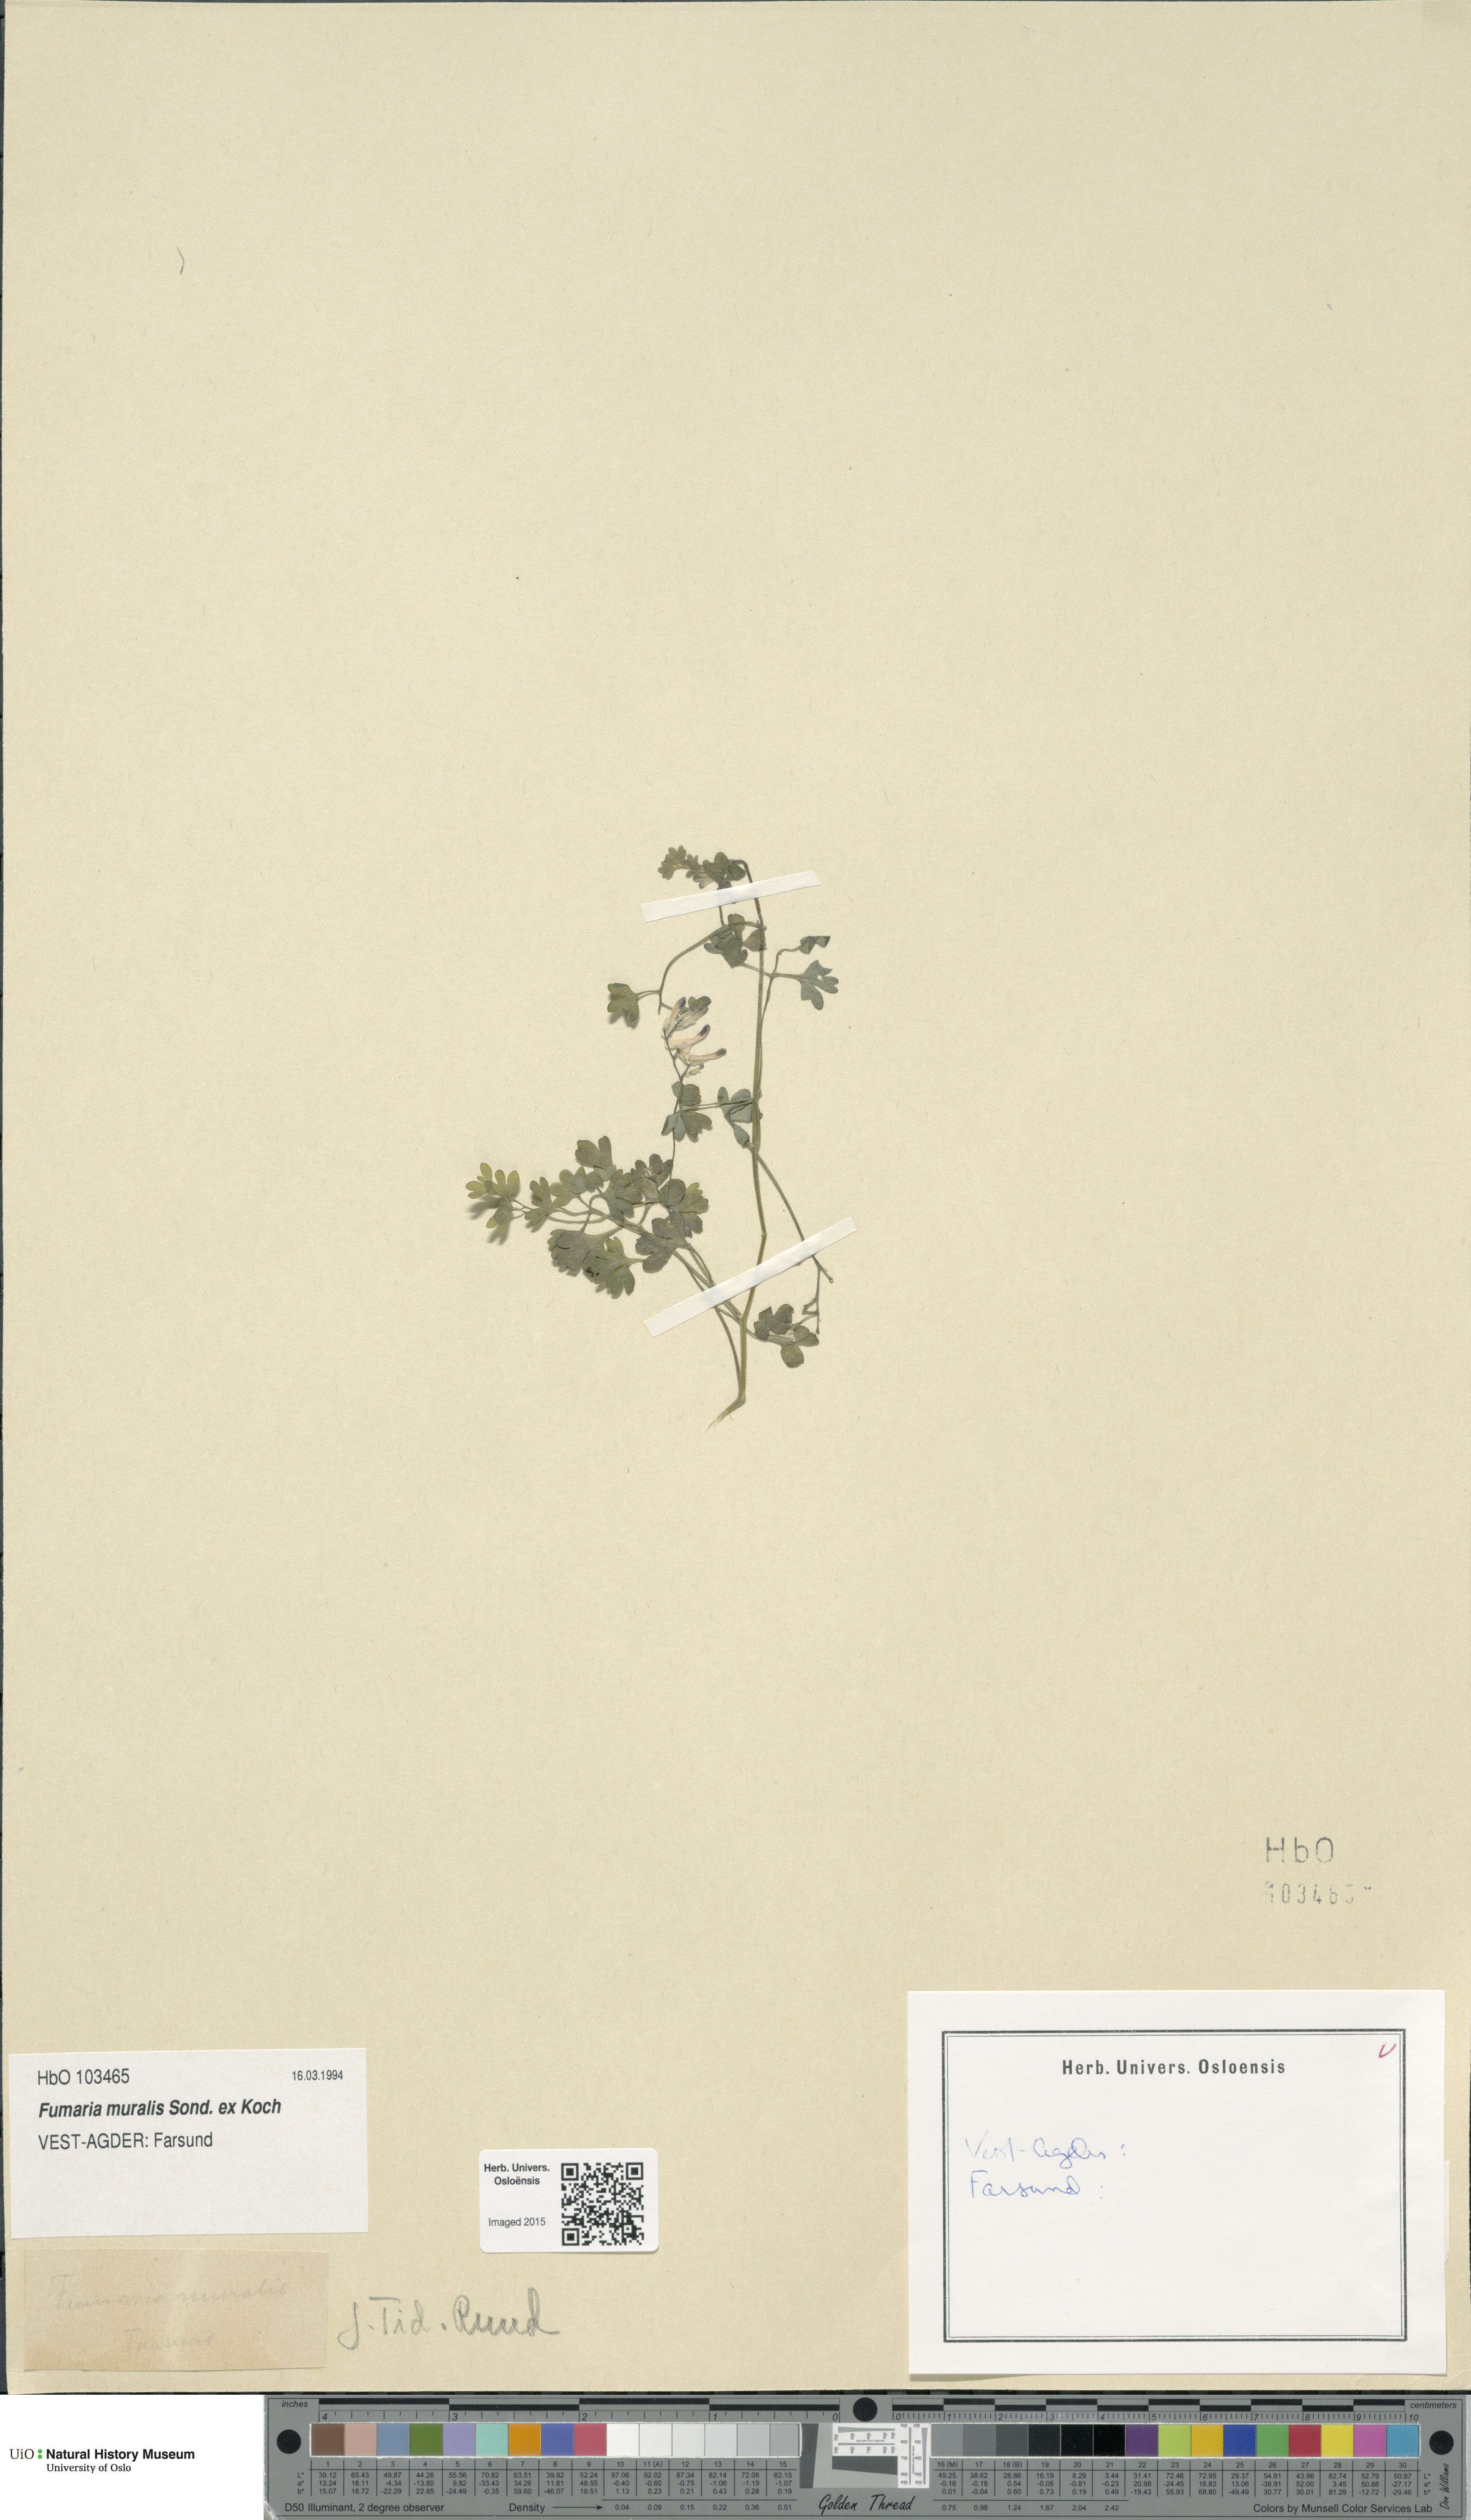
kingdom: Plantae
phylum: Tracheophyta
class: Magnoliopsida
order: Ranunculales
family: Papaveraceae
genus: Fumaria
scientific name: Fumaria muralis
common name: Common ramping-fumitory
